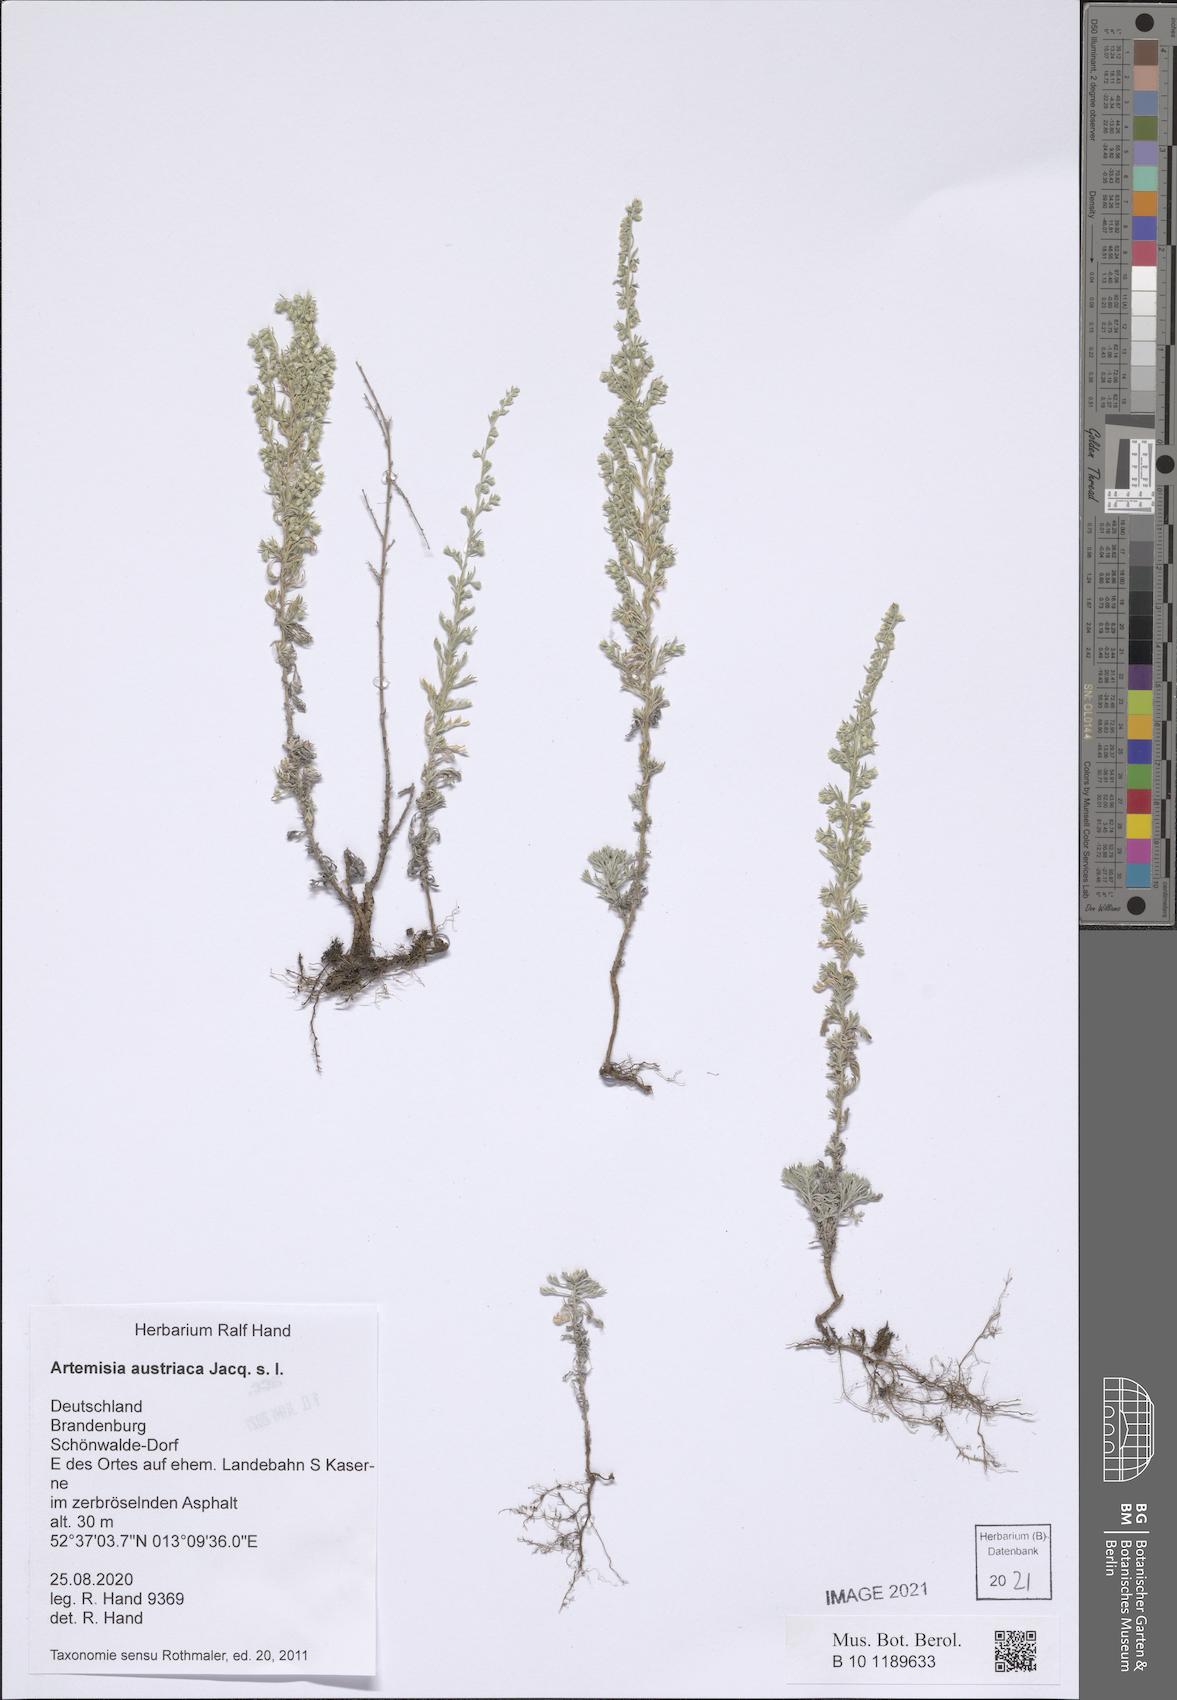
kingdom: Plantae
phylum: Tracheophyta
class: Magnoliopsida
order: Asterales
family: Asteraceae
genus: Artemisia
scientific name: Artemisia repens
